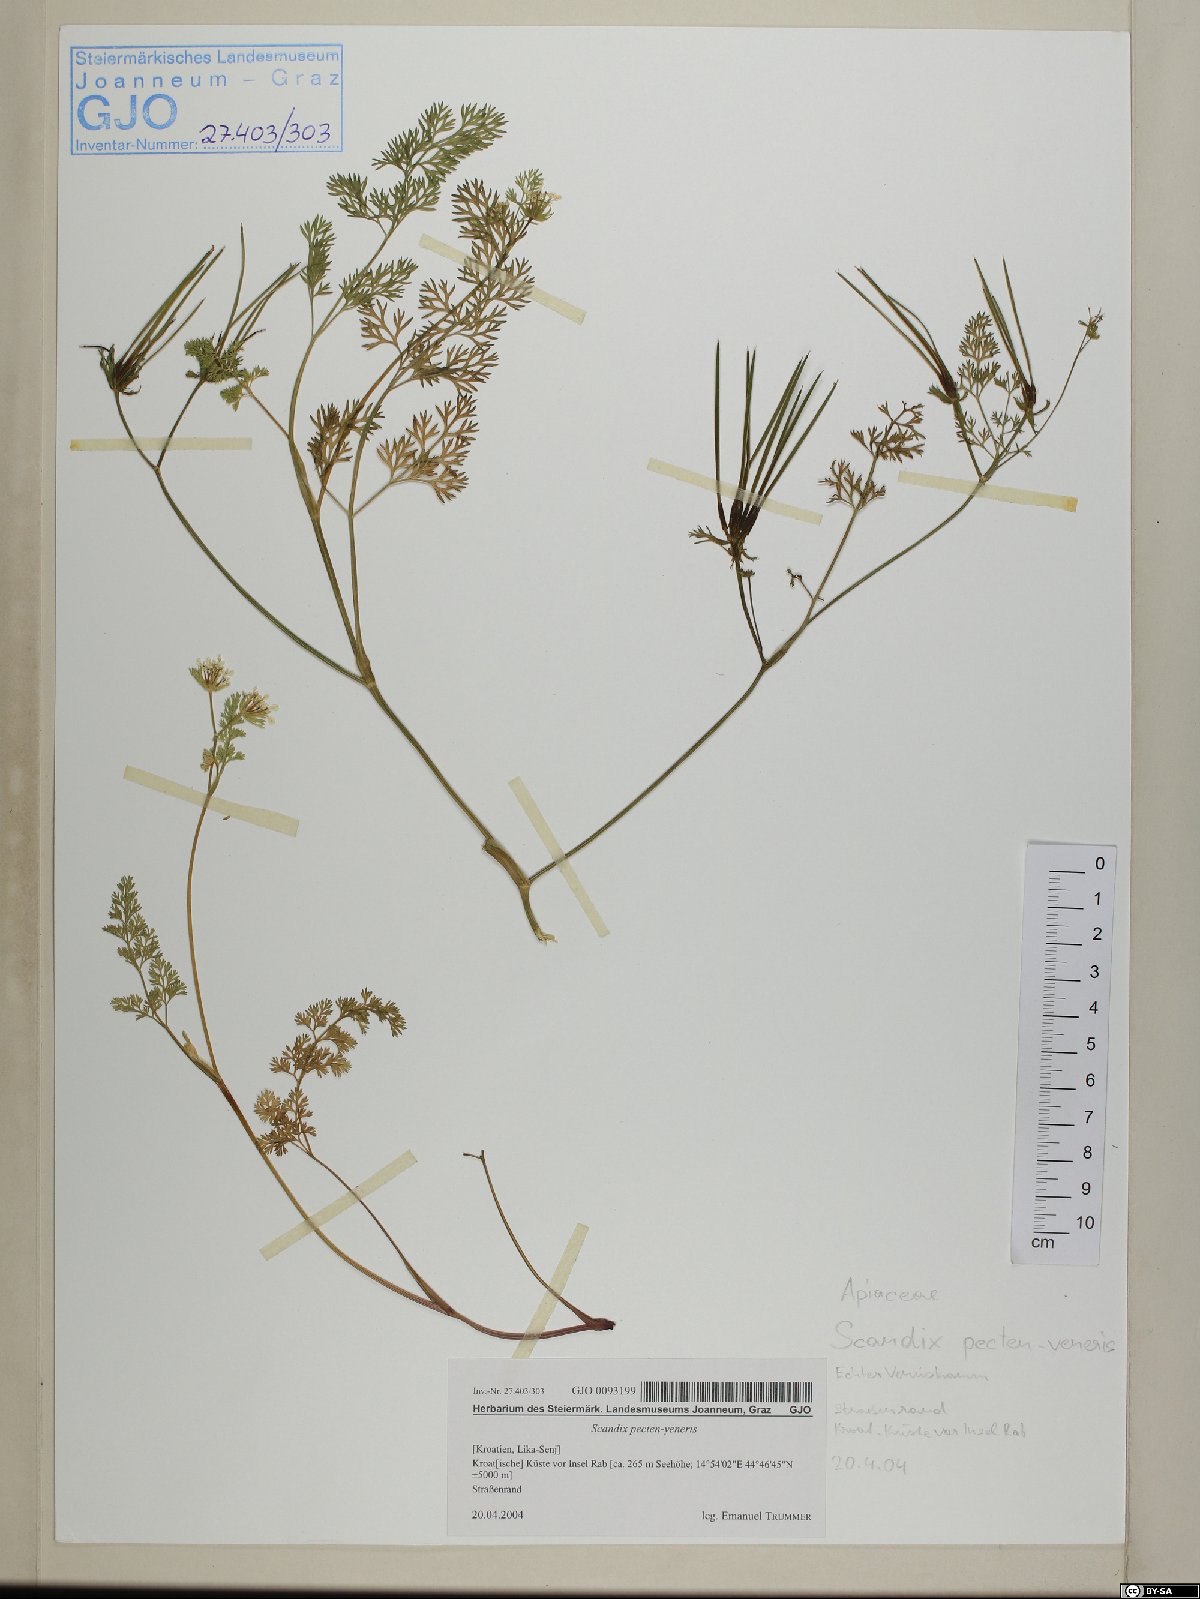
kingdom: Plantae
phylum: Tracheophyta
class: Magnoliopsida
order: Apiales
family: Apiaceae
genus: Scandix
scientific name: Scandix pecten-veneris
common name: Shepherd's-needle
